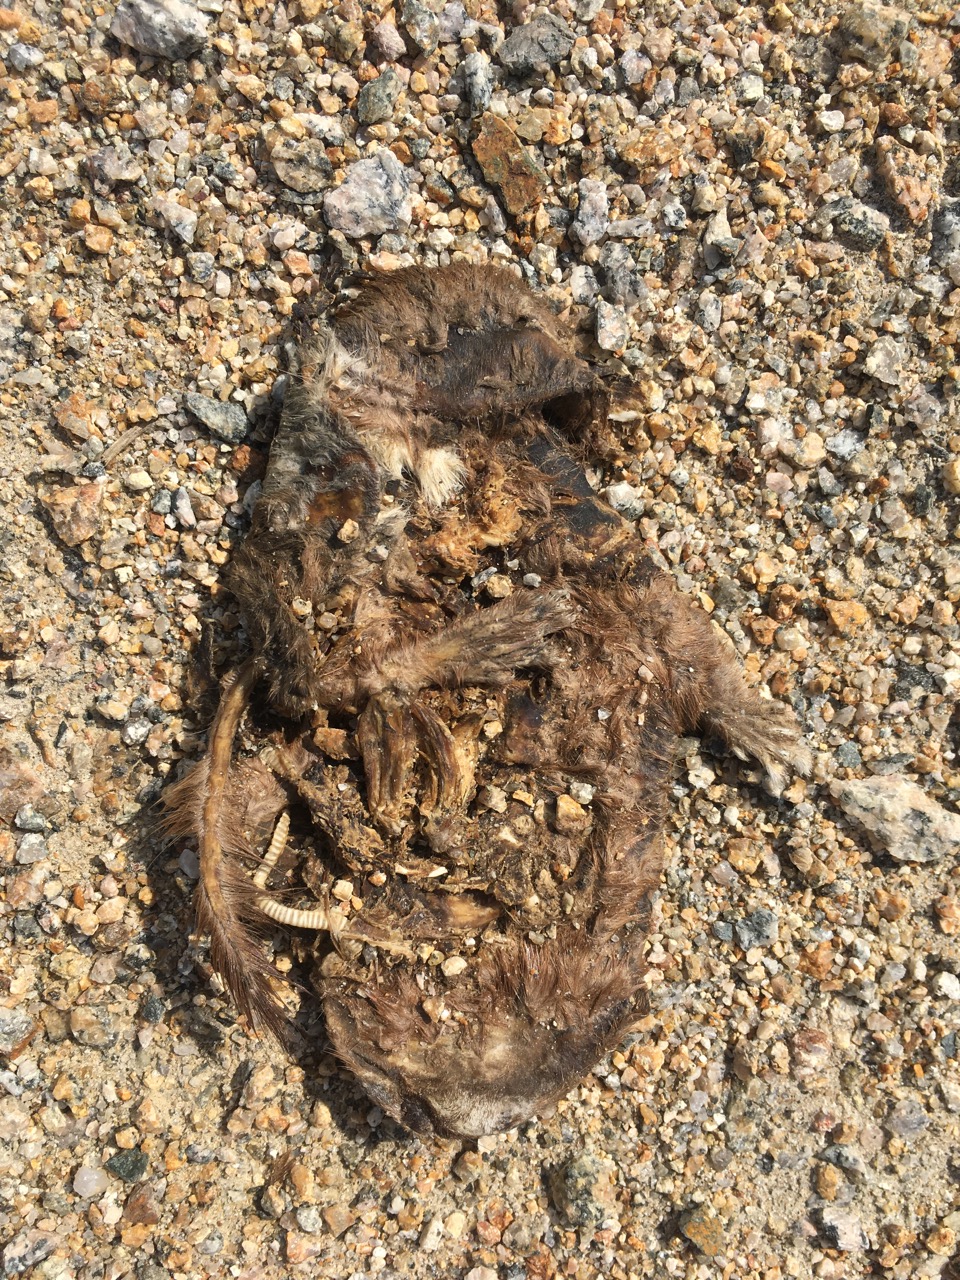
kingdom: Animalia
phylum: Chordata
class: Mammalia
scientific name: Mammalia
